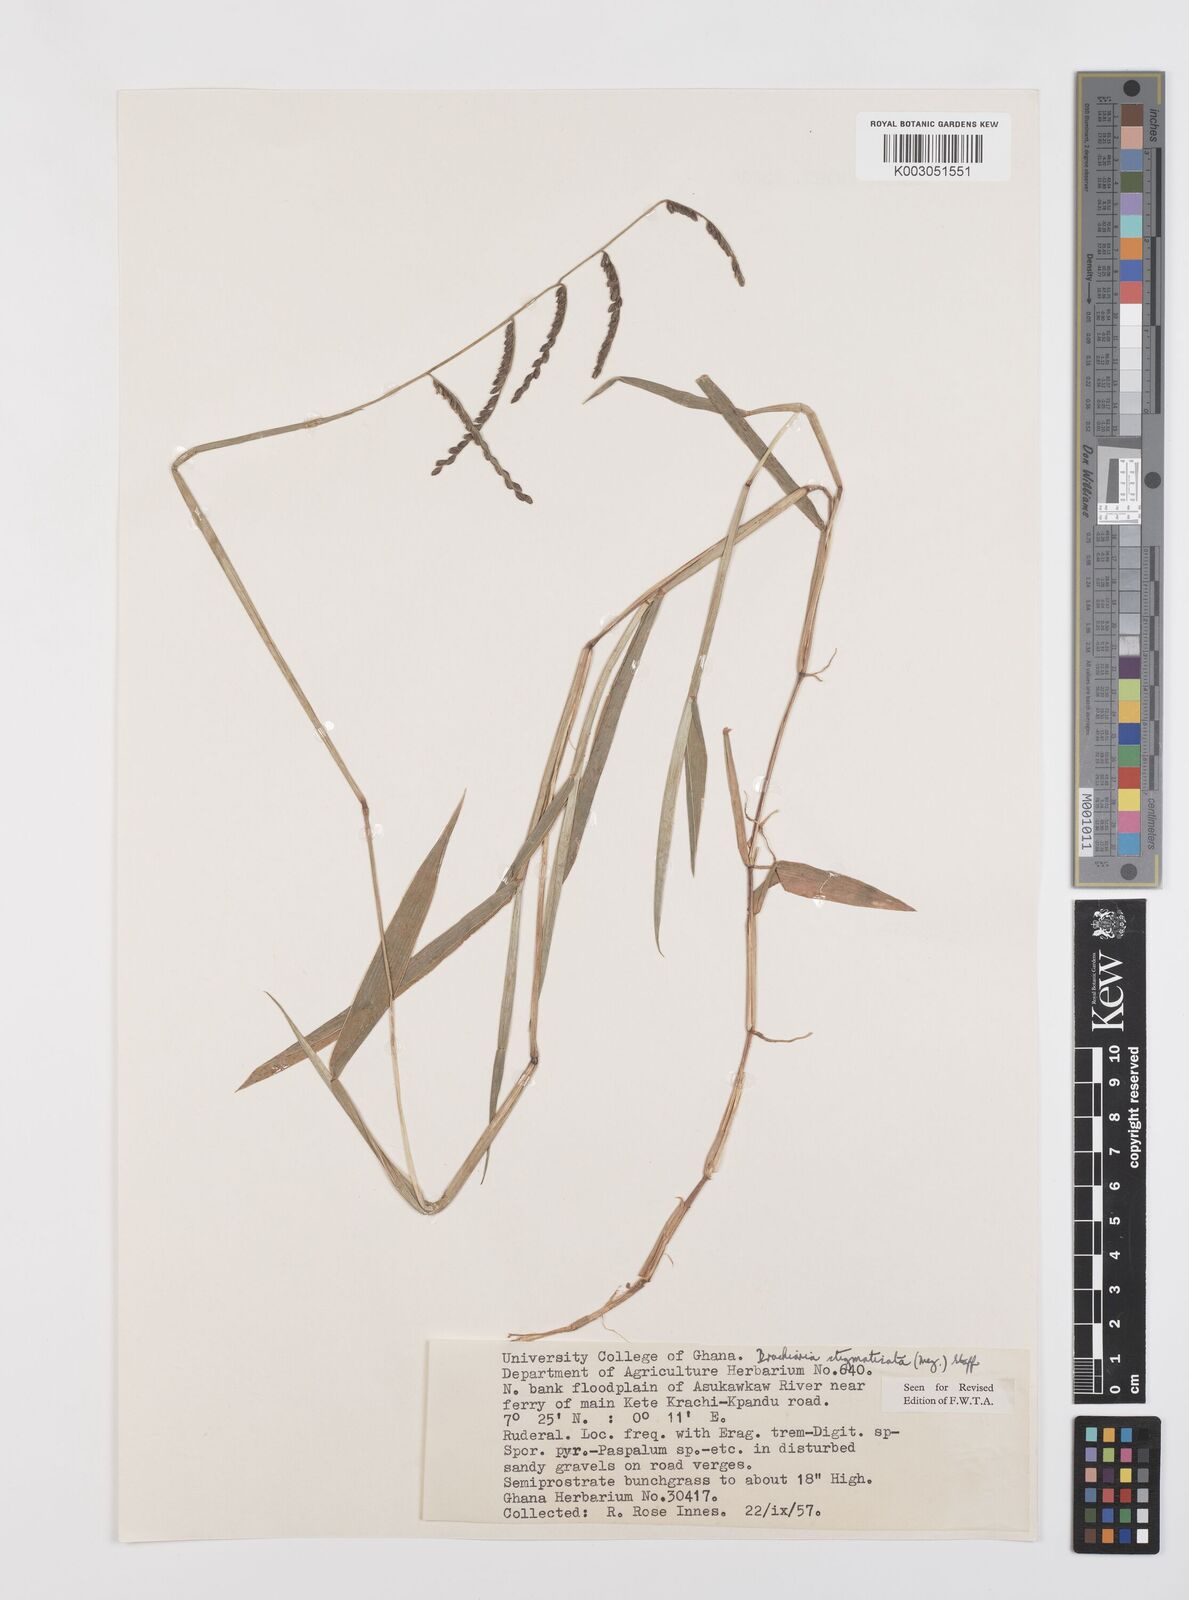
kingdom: Plantae
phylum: Tracheophyta
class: Liliopsida
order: Poales
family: Poaceae
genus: Urochloa
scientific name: Urochloa stigmatisata
